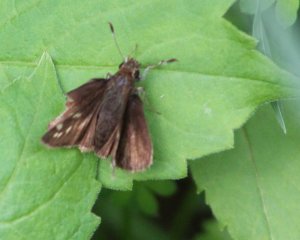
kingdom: Animalia
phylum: Arthropoda
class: Insecta
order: Lepidoptera
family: Hesperiidae
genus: Polites
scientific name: Polites egeremet
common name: Northern Broken-Dash
